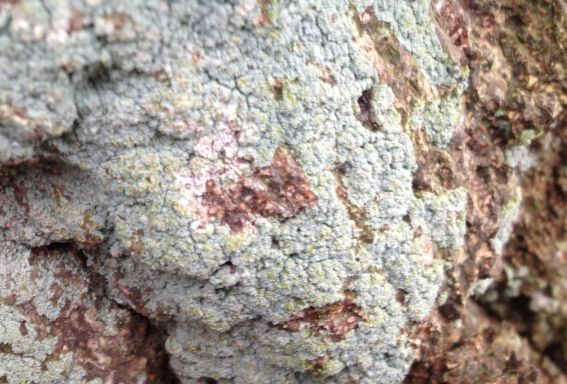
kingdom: Fungi
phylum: Ascomycota
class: Lecanoromycetes
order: Lecanorales
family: Stereocaulaceae
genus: Lepraria
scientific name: Lepraria incana
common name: almindelig støvlav
